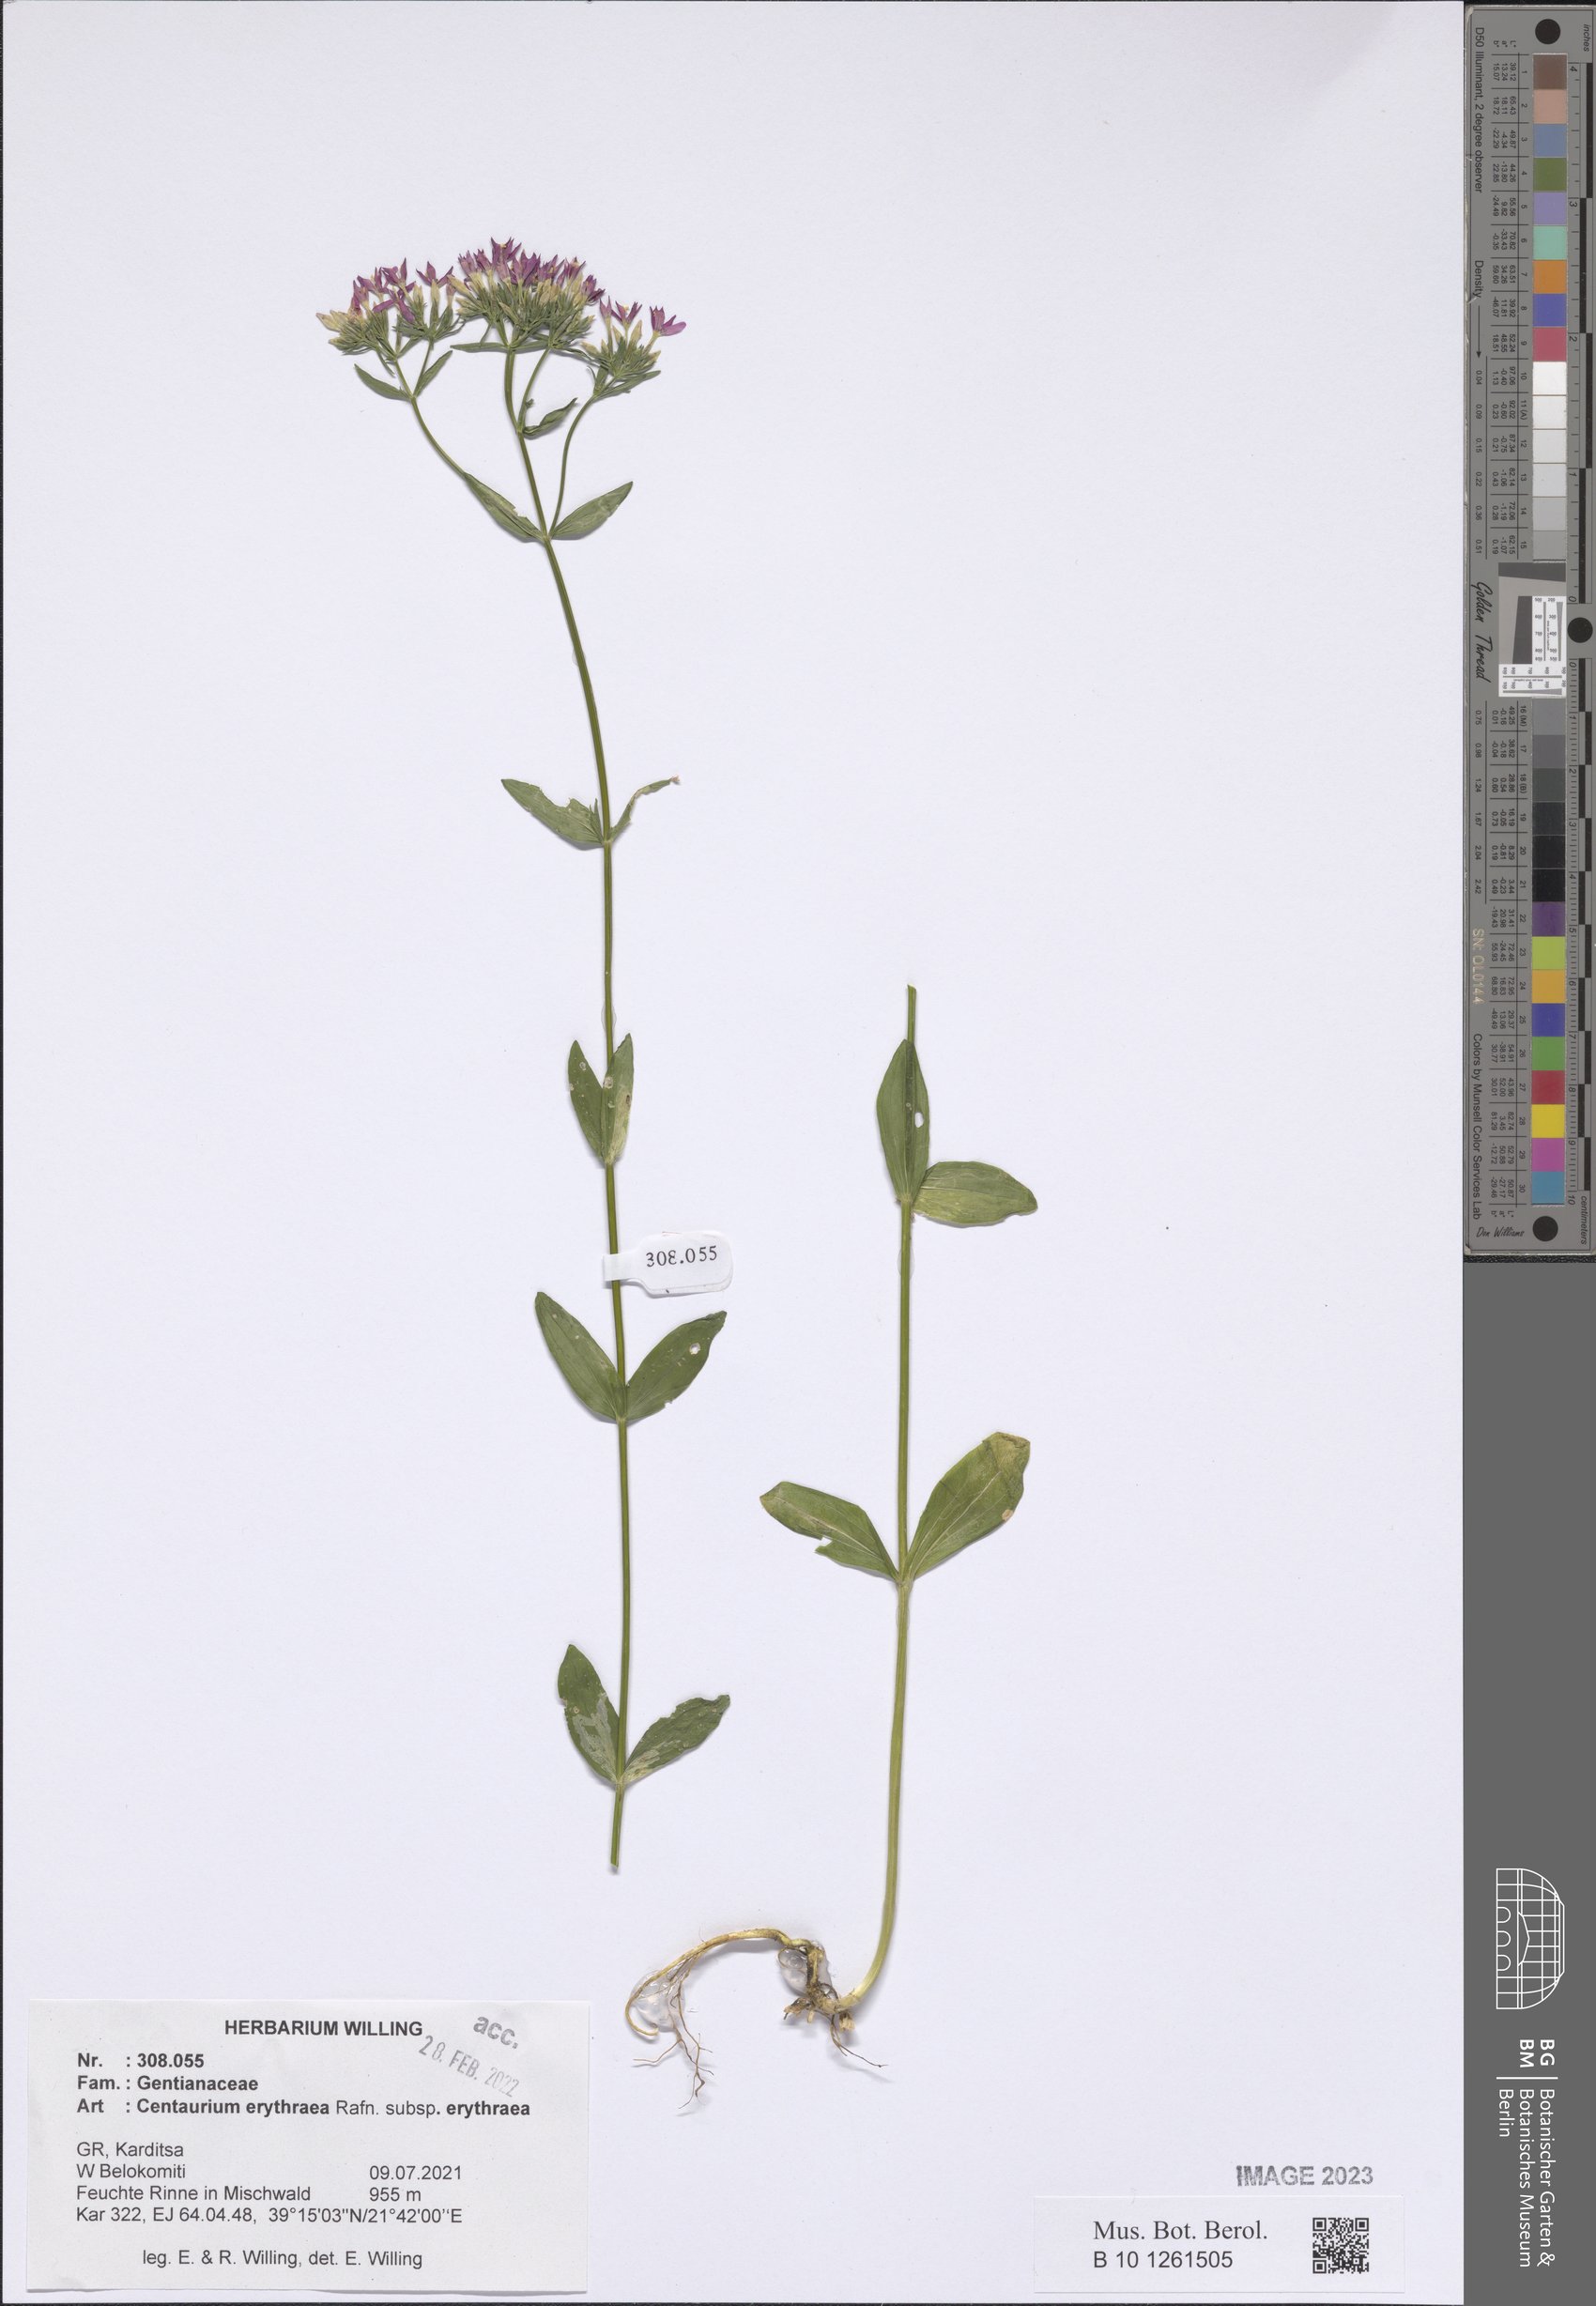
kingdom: Plantae
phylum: Tracheophyta
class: Magnoliopsida
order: Gentianales
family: Gentianaceae
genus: Centaurium
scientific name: Centaurium erythraea
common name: Common centaury
